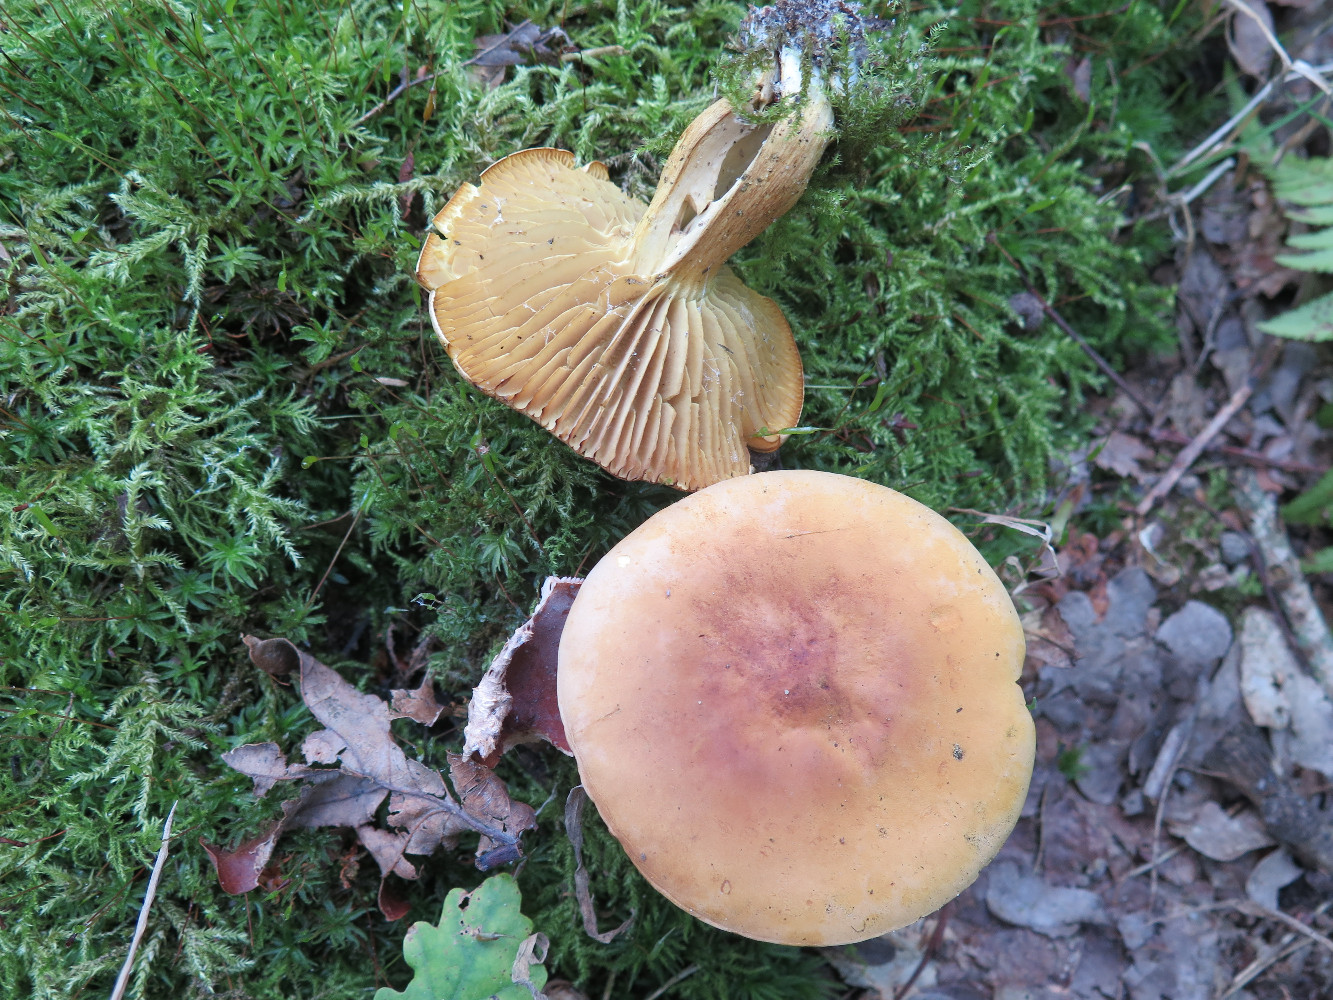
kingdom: Fungi
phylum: Basidiomycota
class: Agaricomycetes
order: Agaricales
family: Tricholomataceae
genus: Tricholoma
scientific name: Tricholoma sulphureum
